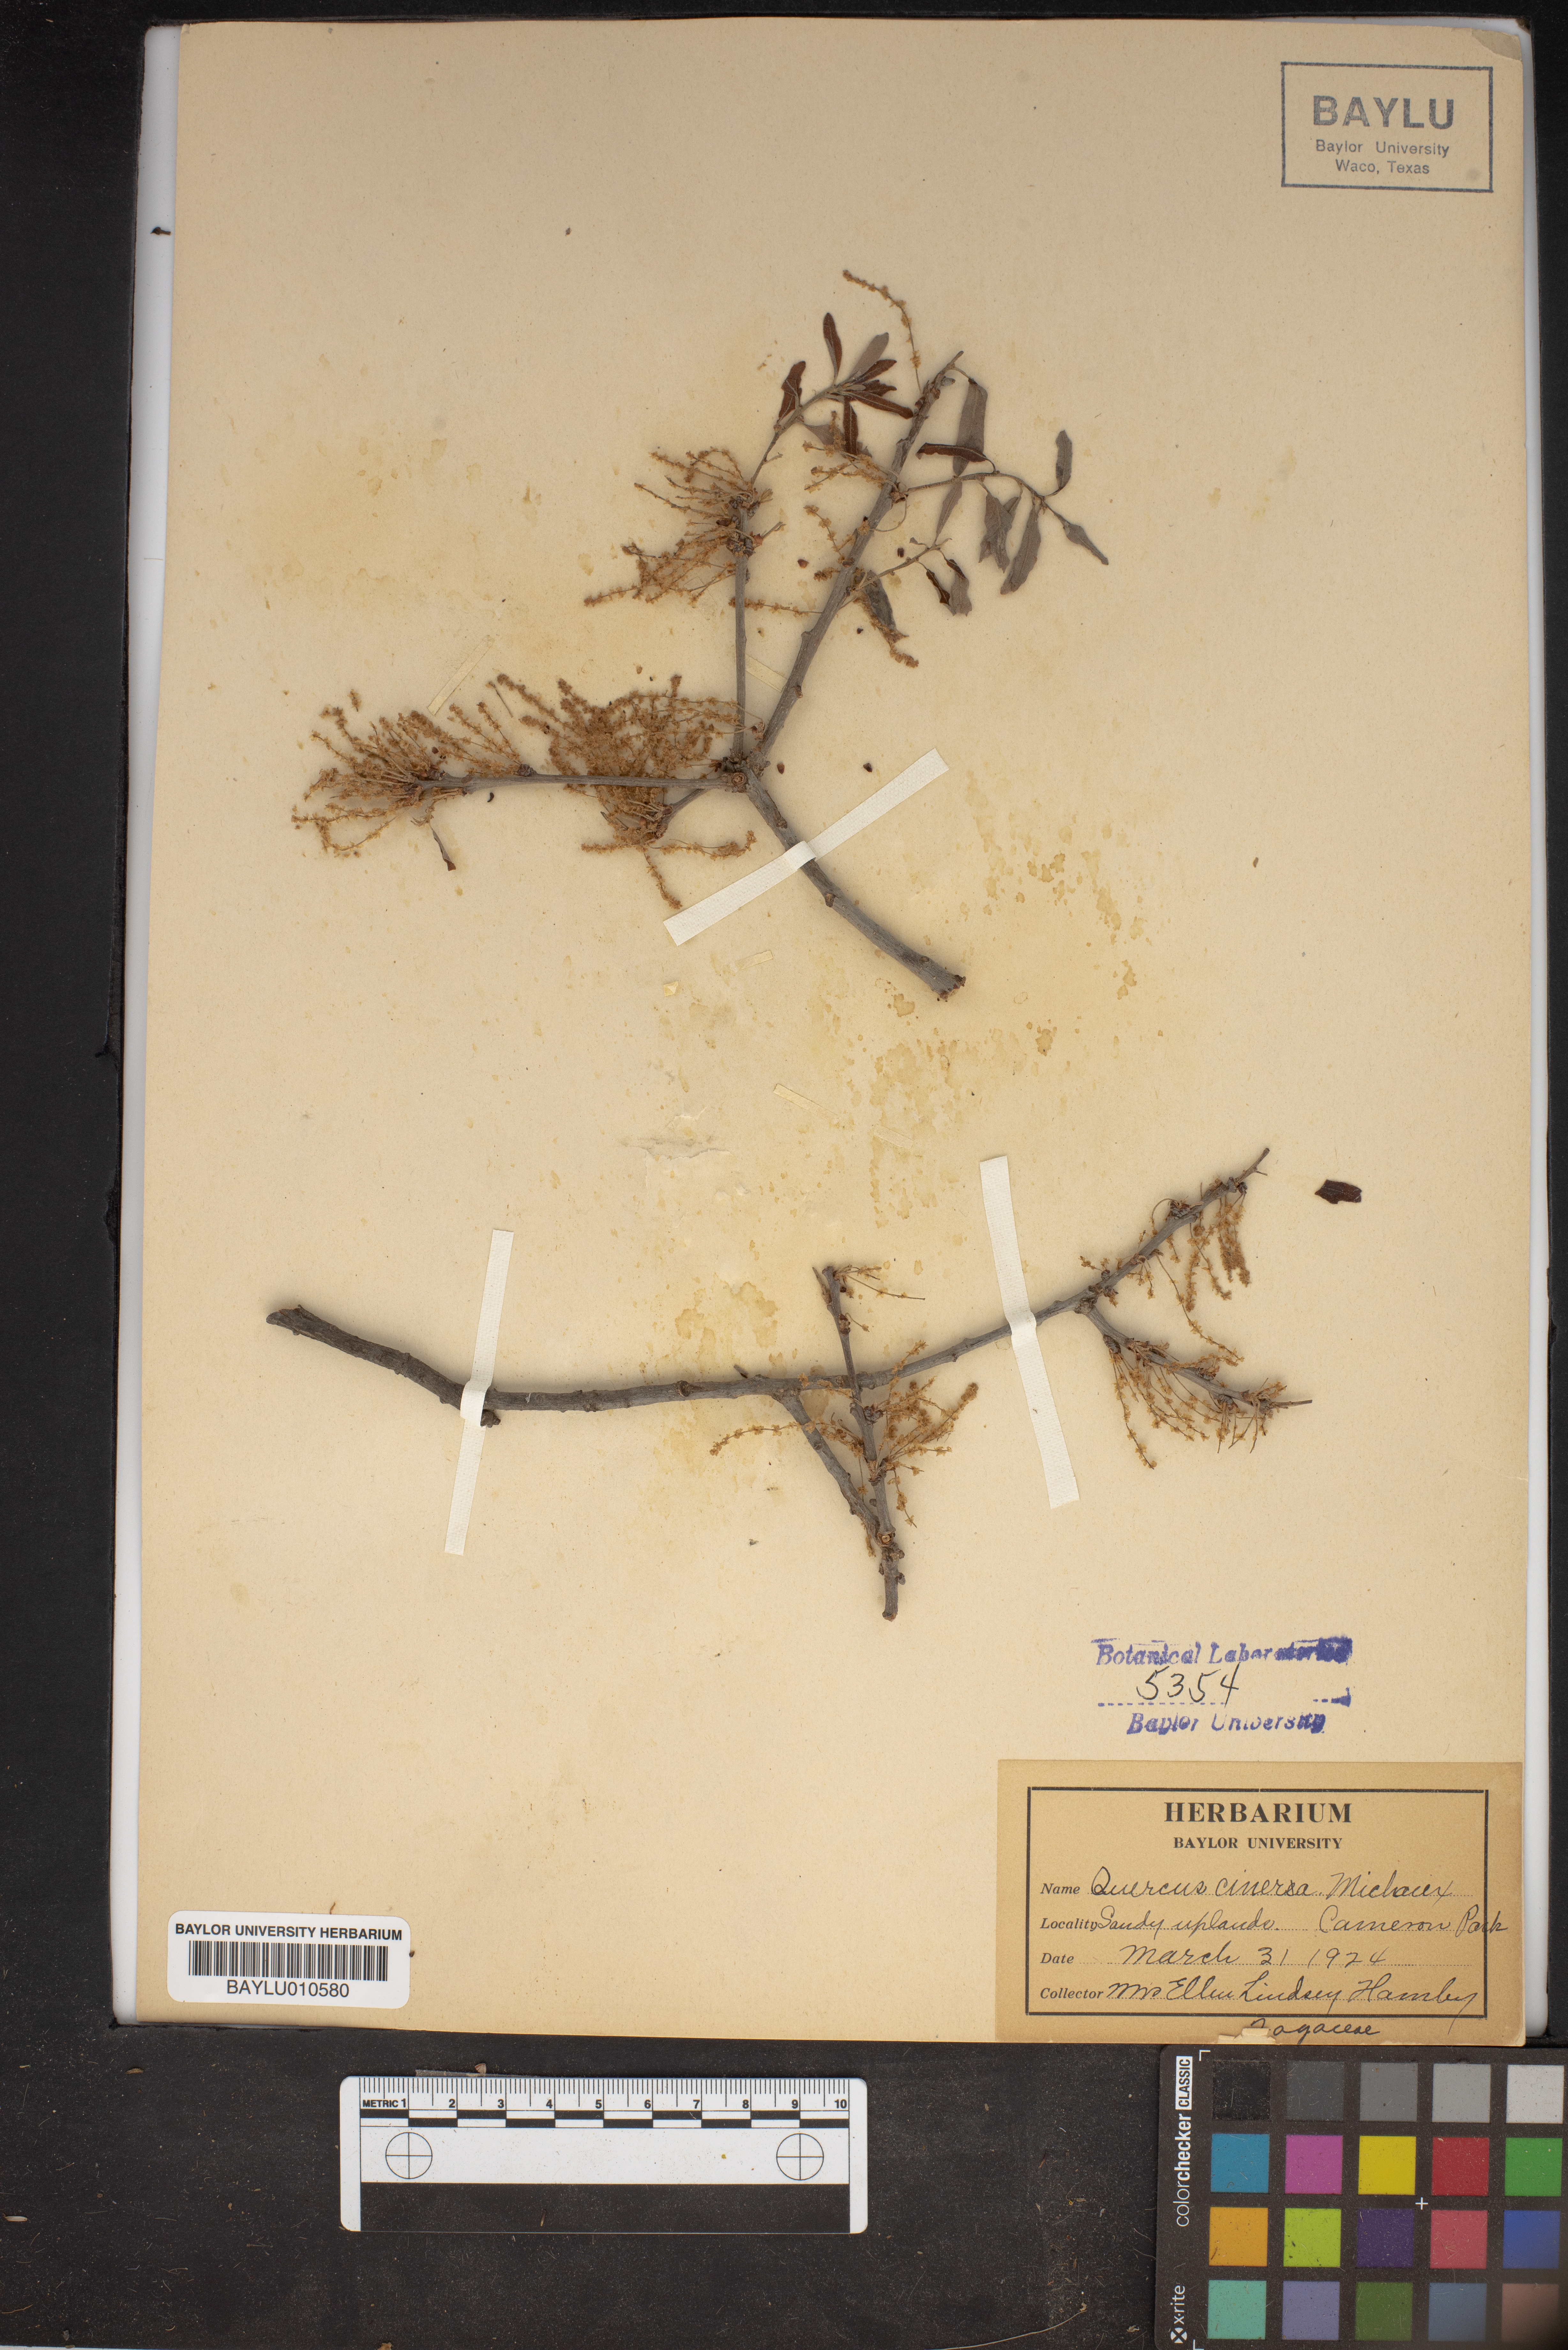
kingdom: Plantae
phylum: Tracheophyta
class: Magnoliopsida
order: Fagales
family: Fagaceae
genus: Quercus
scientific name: Quercus incana
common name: Bluejack oak
